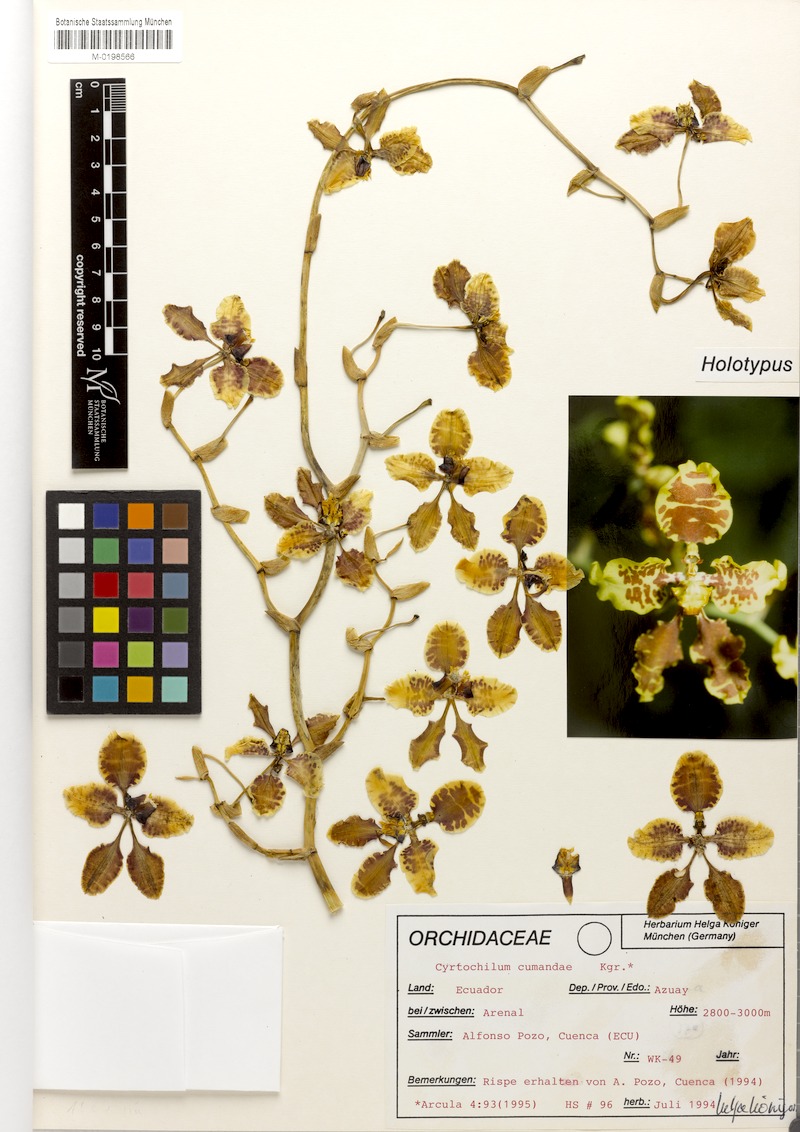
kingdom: Plantae
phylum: Tracheophyta
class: Liliopsida
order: Asparagales
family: Orchidaceae
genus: Cyrtochilum
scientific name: Cyrtochilum cumandae
